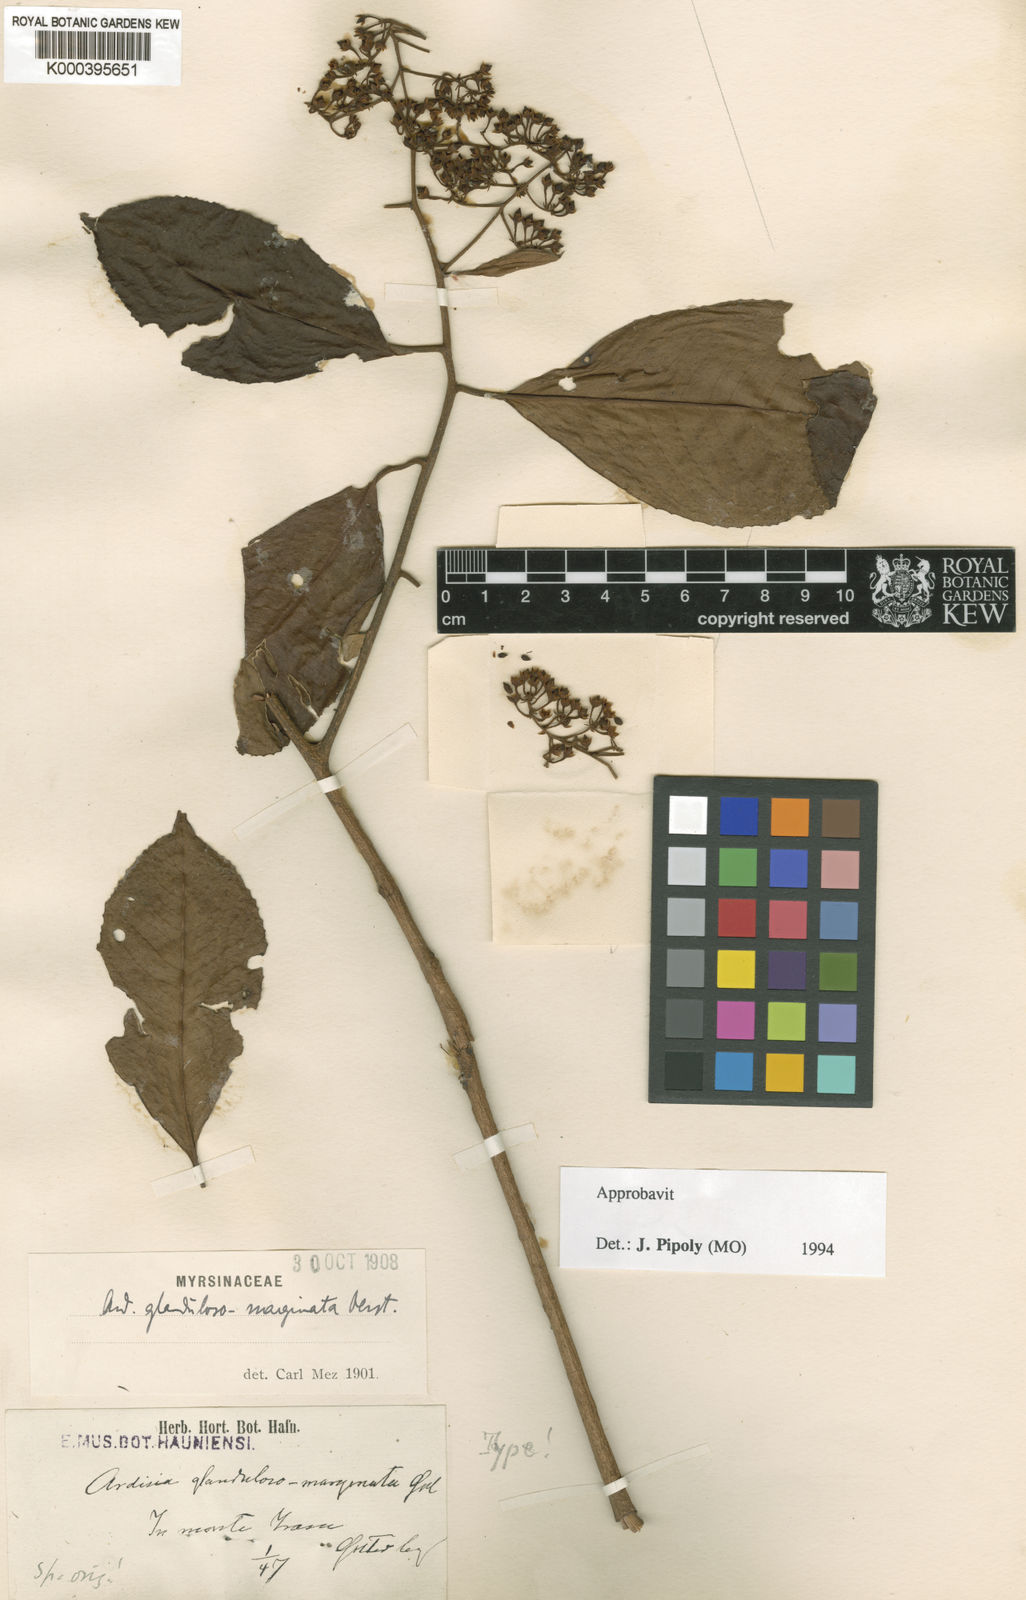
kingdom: Plantae
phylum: Tracheophyta
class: Magnoliopsida
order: Ericales
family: Primulaceae
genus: Ardisia
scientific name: Ardisia glandulosomarginata
